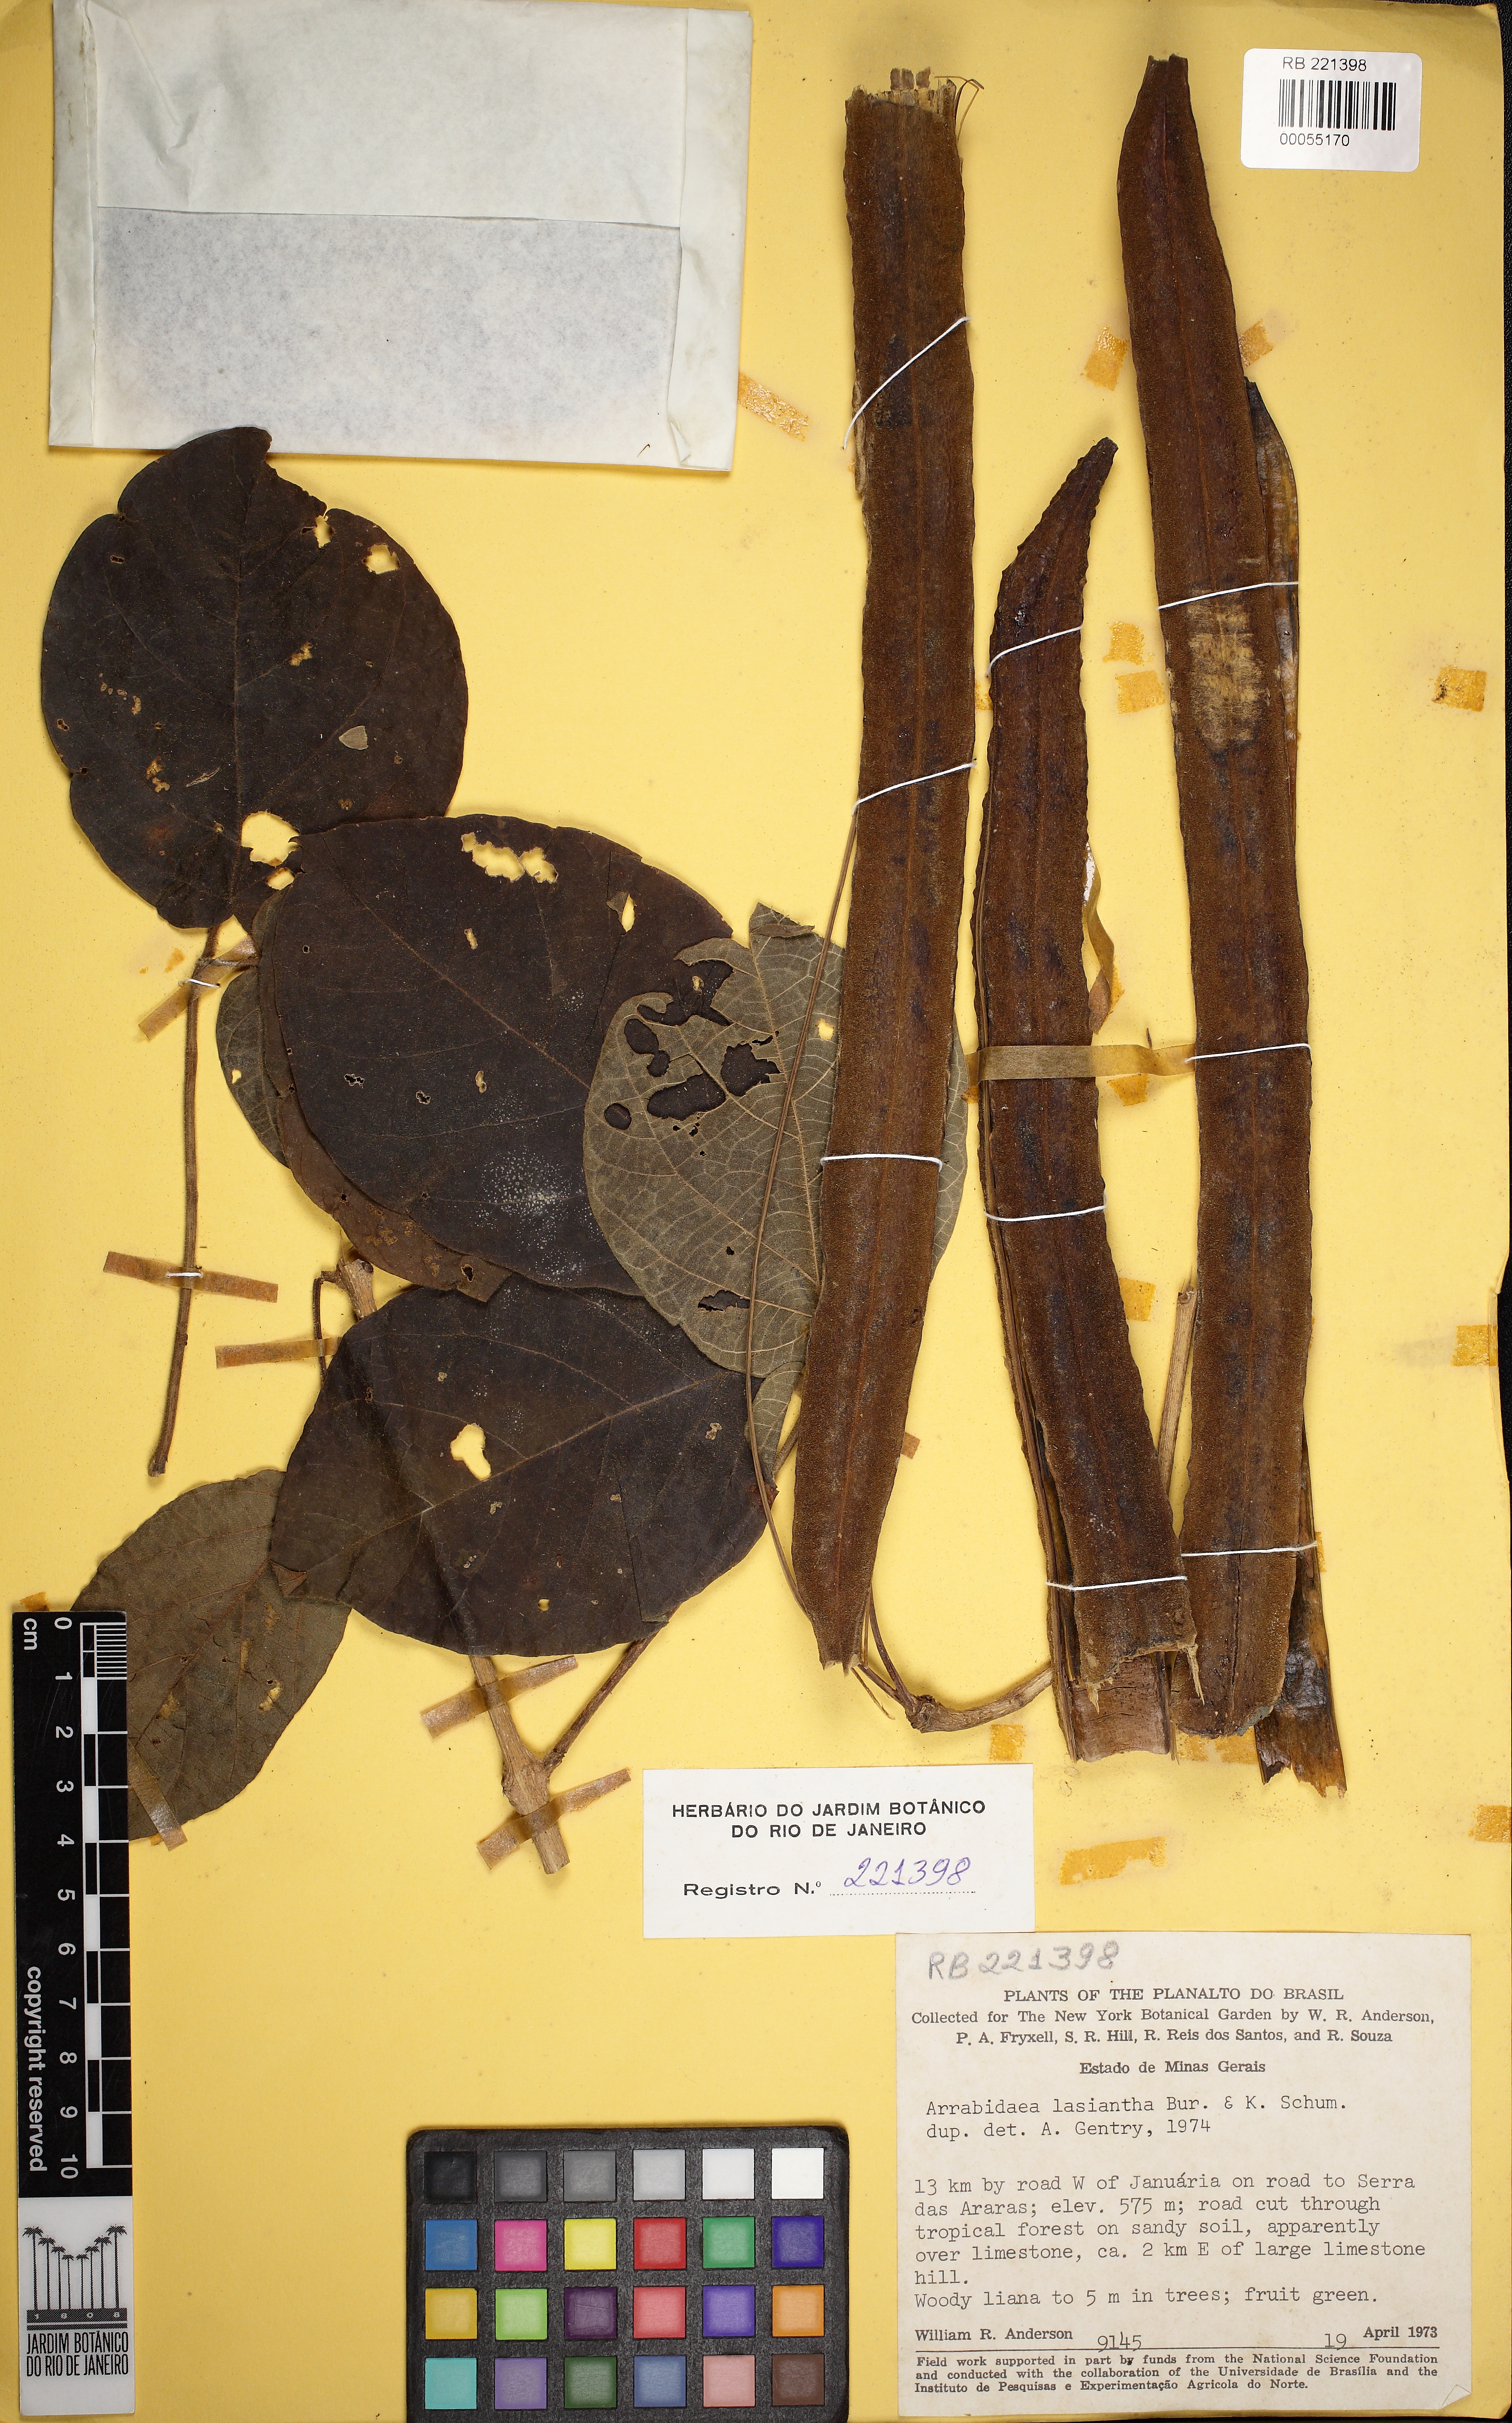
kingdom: Plantae
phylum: Tracheophyta
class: Magnoliopsida
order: Lamiales
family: Bignoniaceae
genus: Cuspidaria
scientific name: Cuspidaria lasiantha
